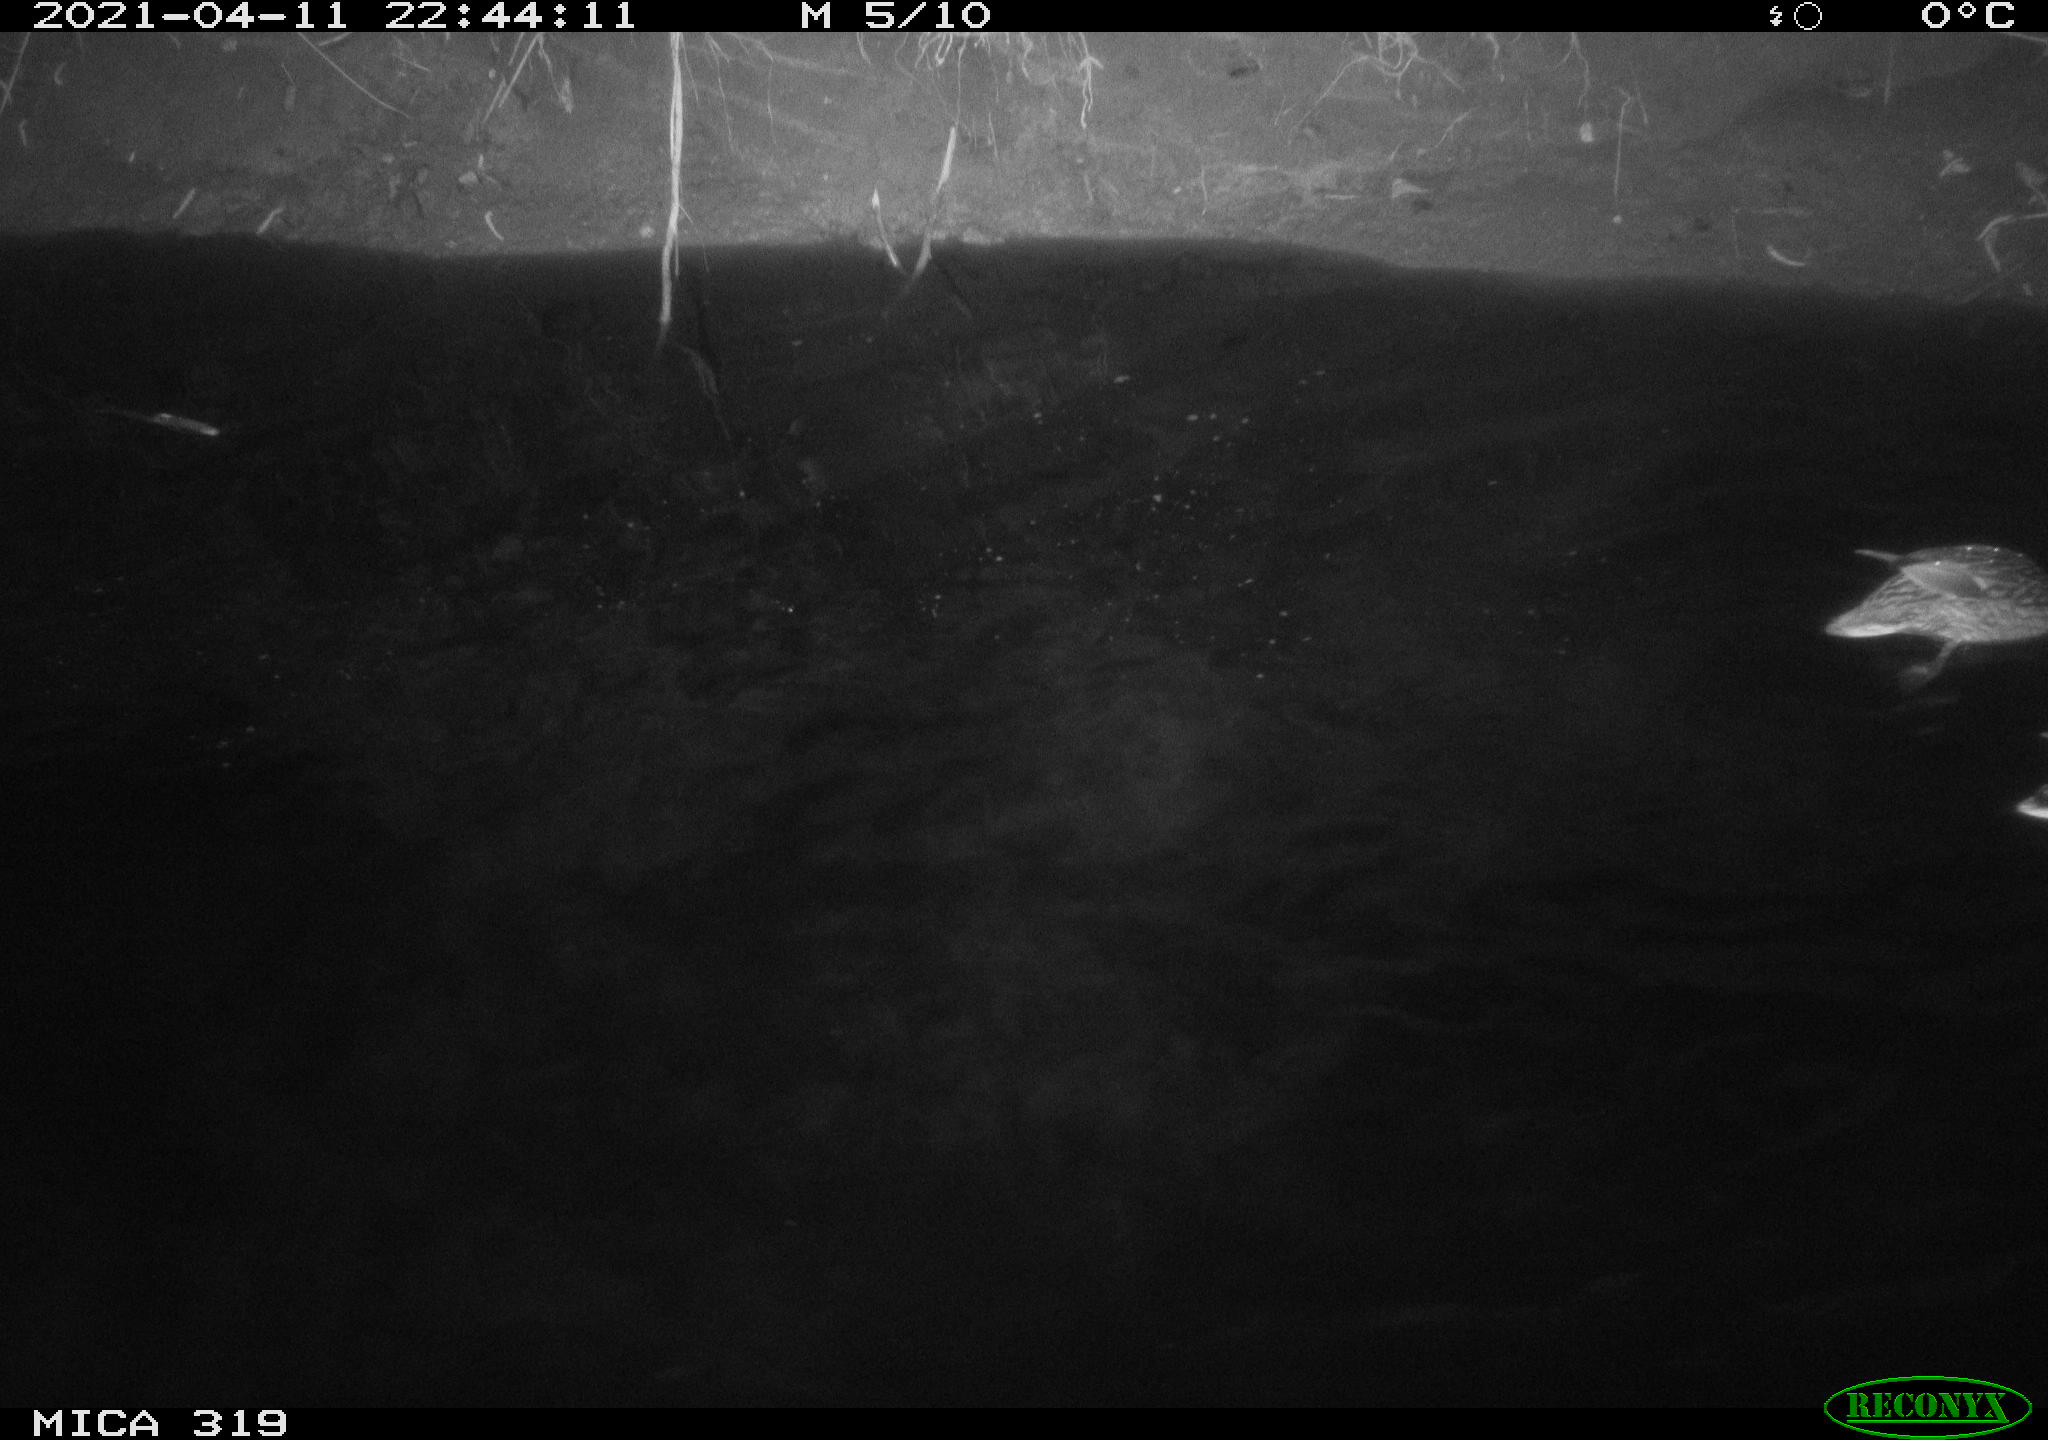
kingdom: Animalia
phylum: Chordata
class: Aves
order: Anseriformes
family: Anatidae
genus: Anas
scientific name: Anas platyrhynchos
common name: Mallard
